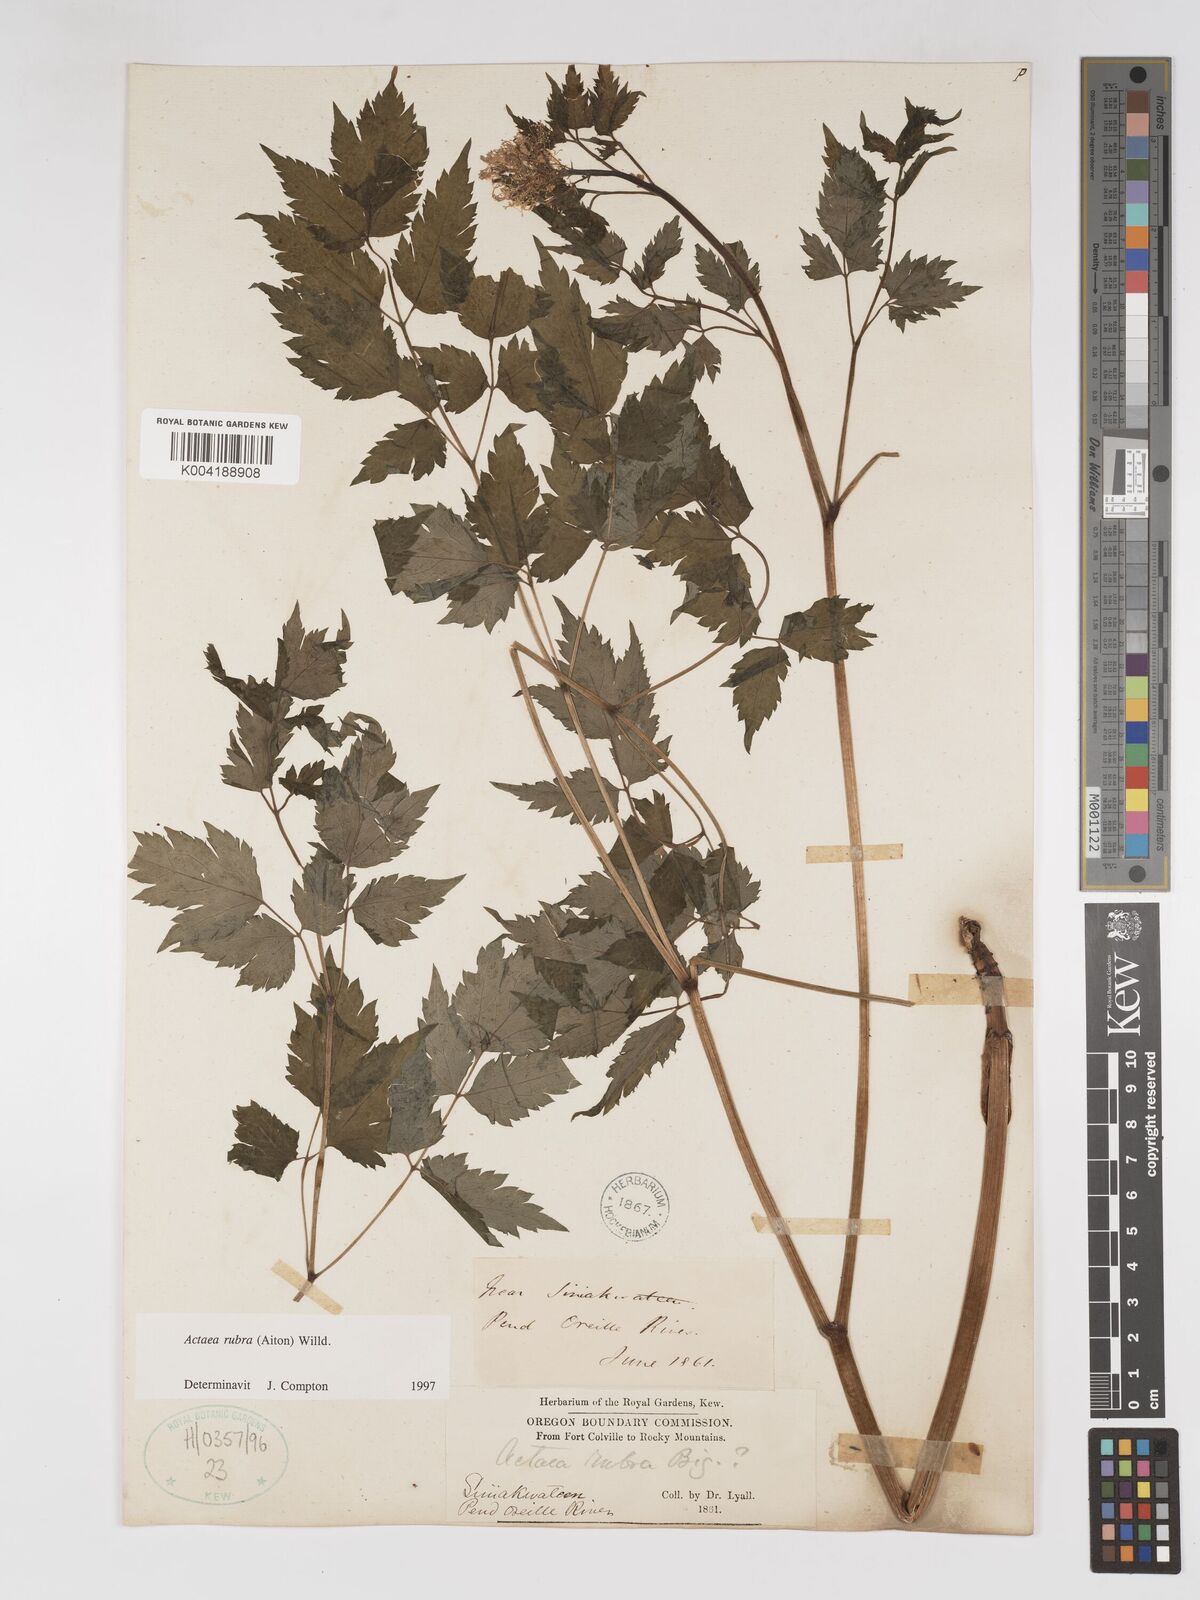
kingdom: Plantae
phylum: Tracheophyta
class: Magnoliopsida
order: Ranunculales
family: Ranunculaceae
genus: Actaea
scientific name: Actaea rubra
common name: Red baneberry
